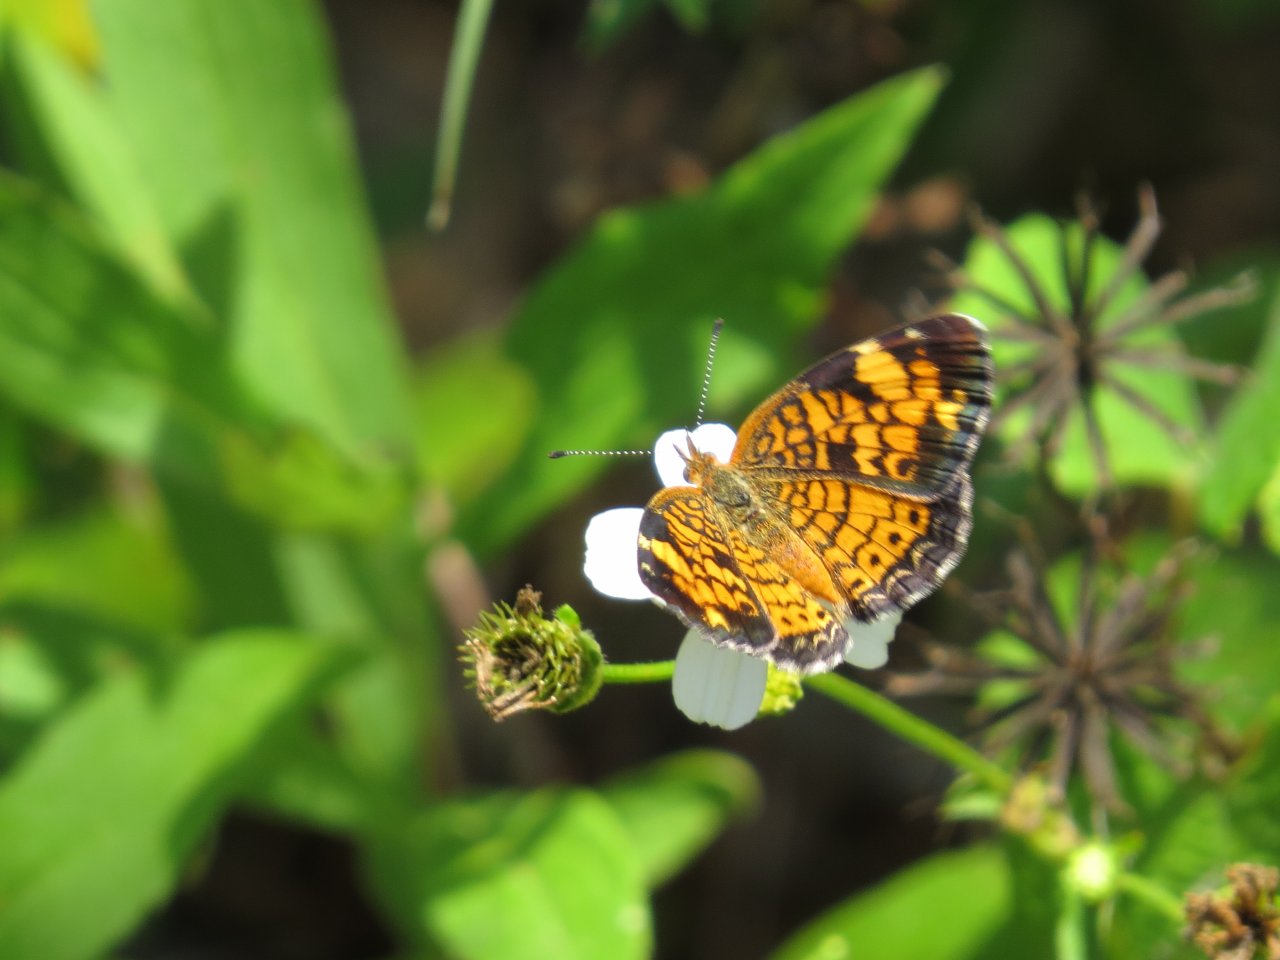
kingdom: Animalia
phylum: Arthropoda
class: Insecta
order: Lepidoptera
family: Nymphalidae
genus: Phyciodes
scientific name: Phyciodes tharos
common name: Pearl Crescent
